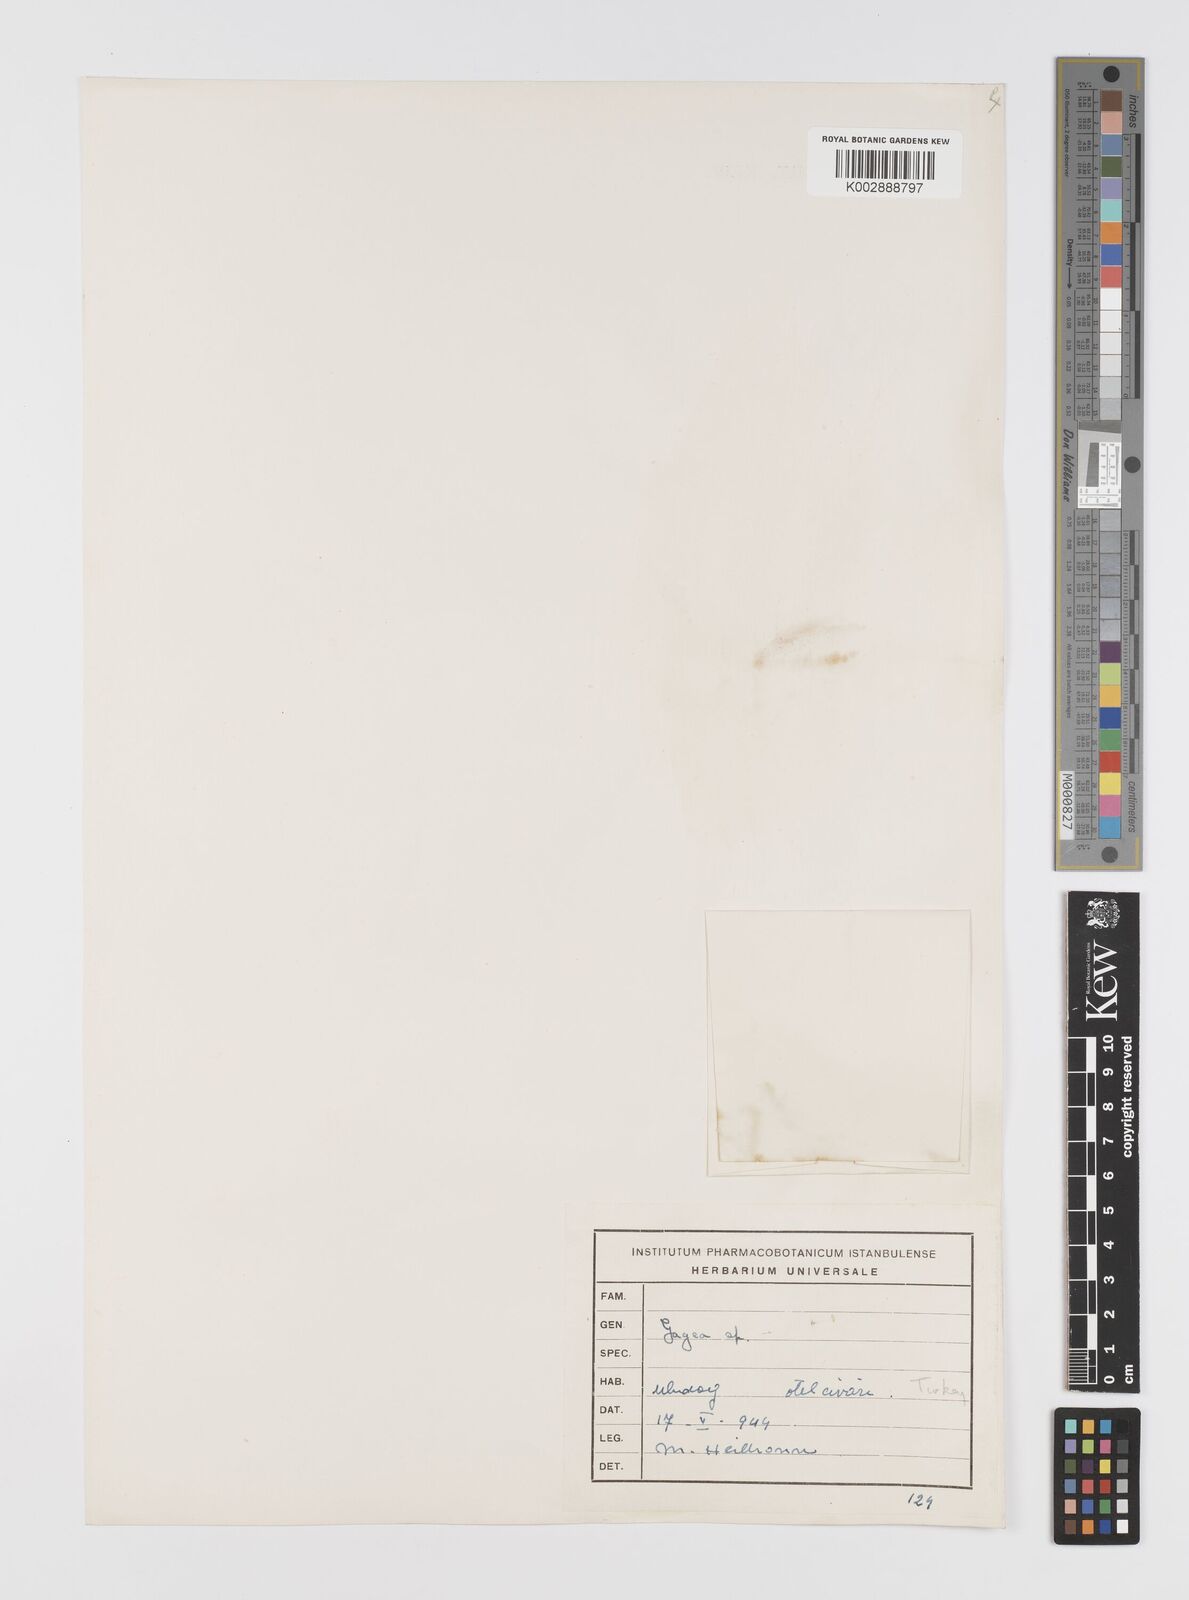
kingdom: Plantae
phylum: Tracheophyta
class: Liliopsida
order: Liliales
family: Liliaceae
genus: Gagea
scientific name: Gagea
